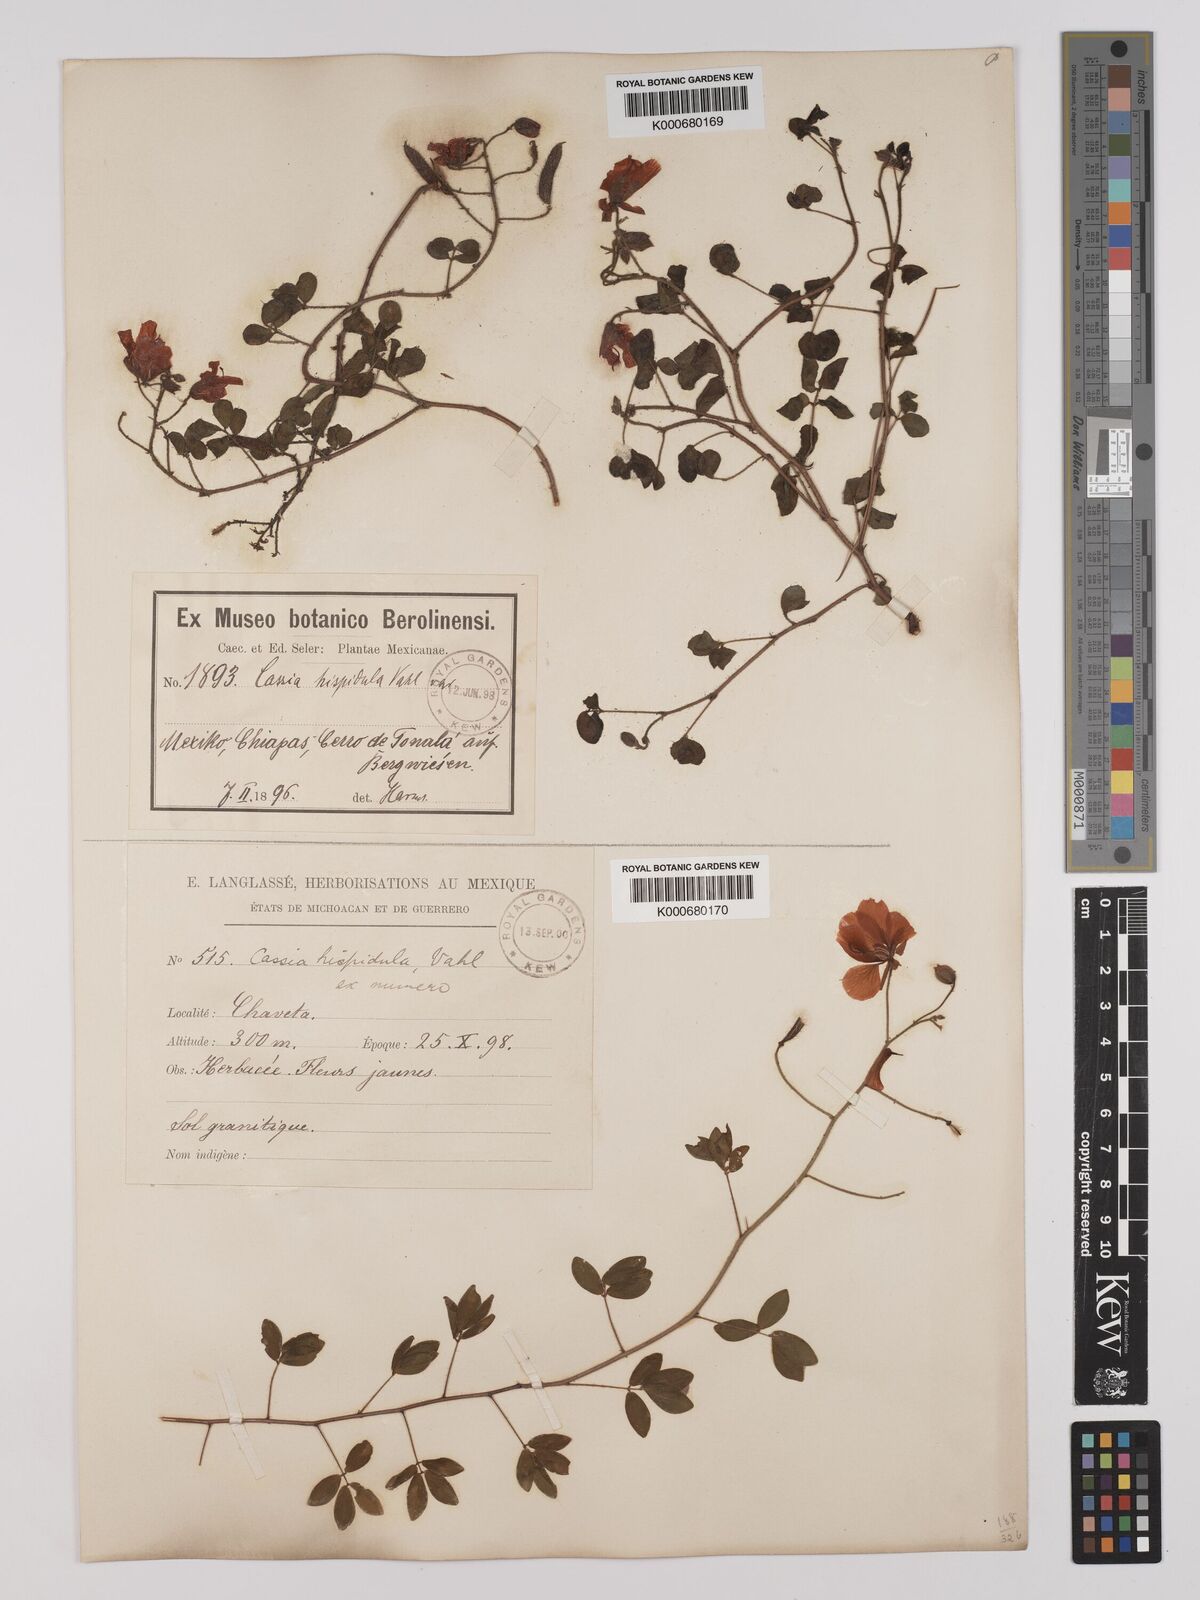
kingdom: Plantae
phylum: Tracheophyta
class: Magnoliopsida
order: Fabales
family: Fabaceae
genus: Chamaecrista
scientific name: Chamaecrista hispidula
